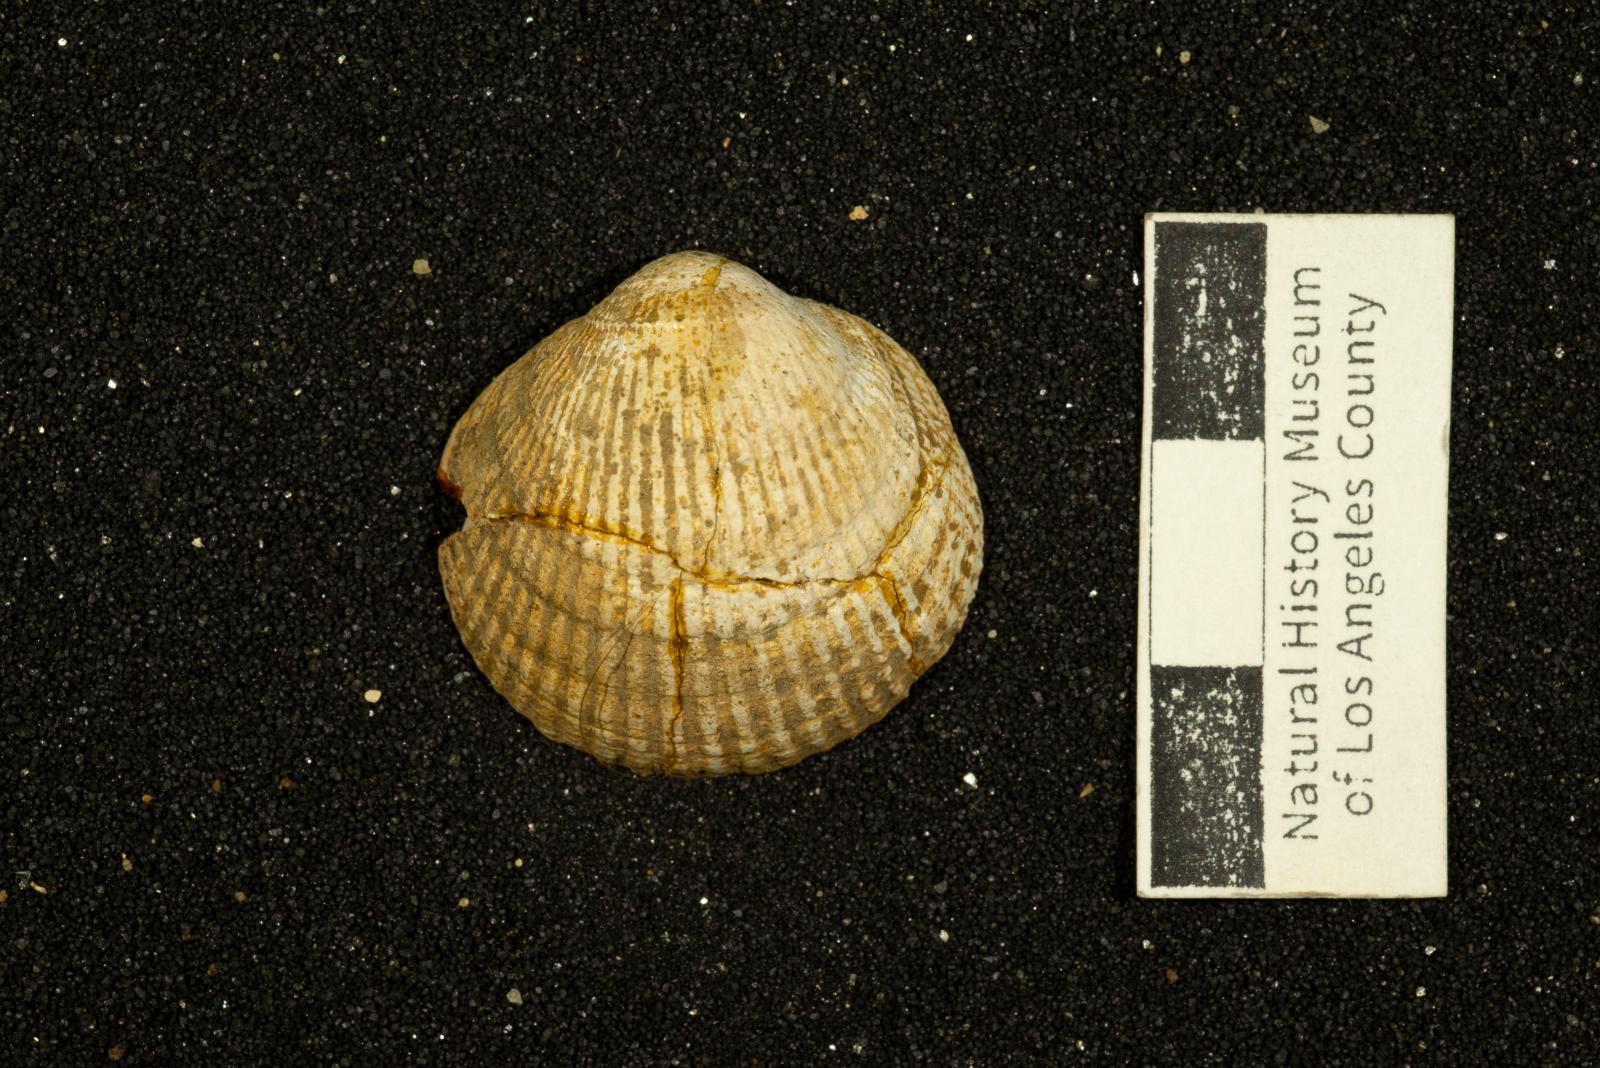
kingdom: Animalia
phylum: Mollusca
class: Bivalvia
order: Arcida
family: Glycymerididae
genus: Glycymerita
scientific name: Glycymerita Axinaea veatchii
